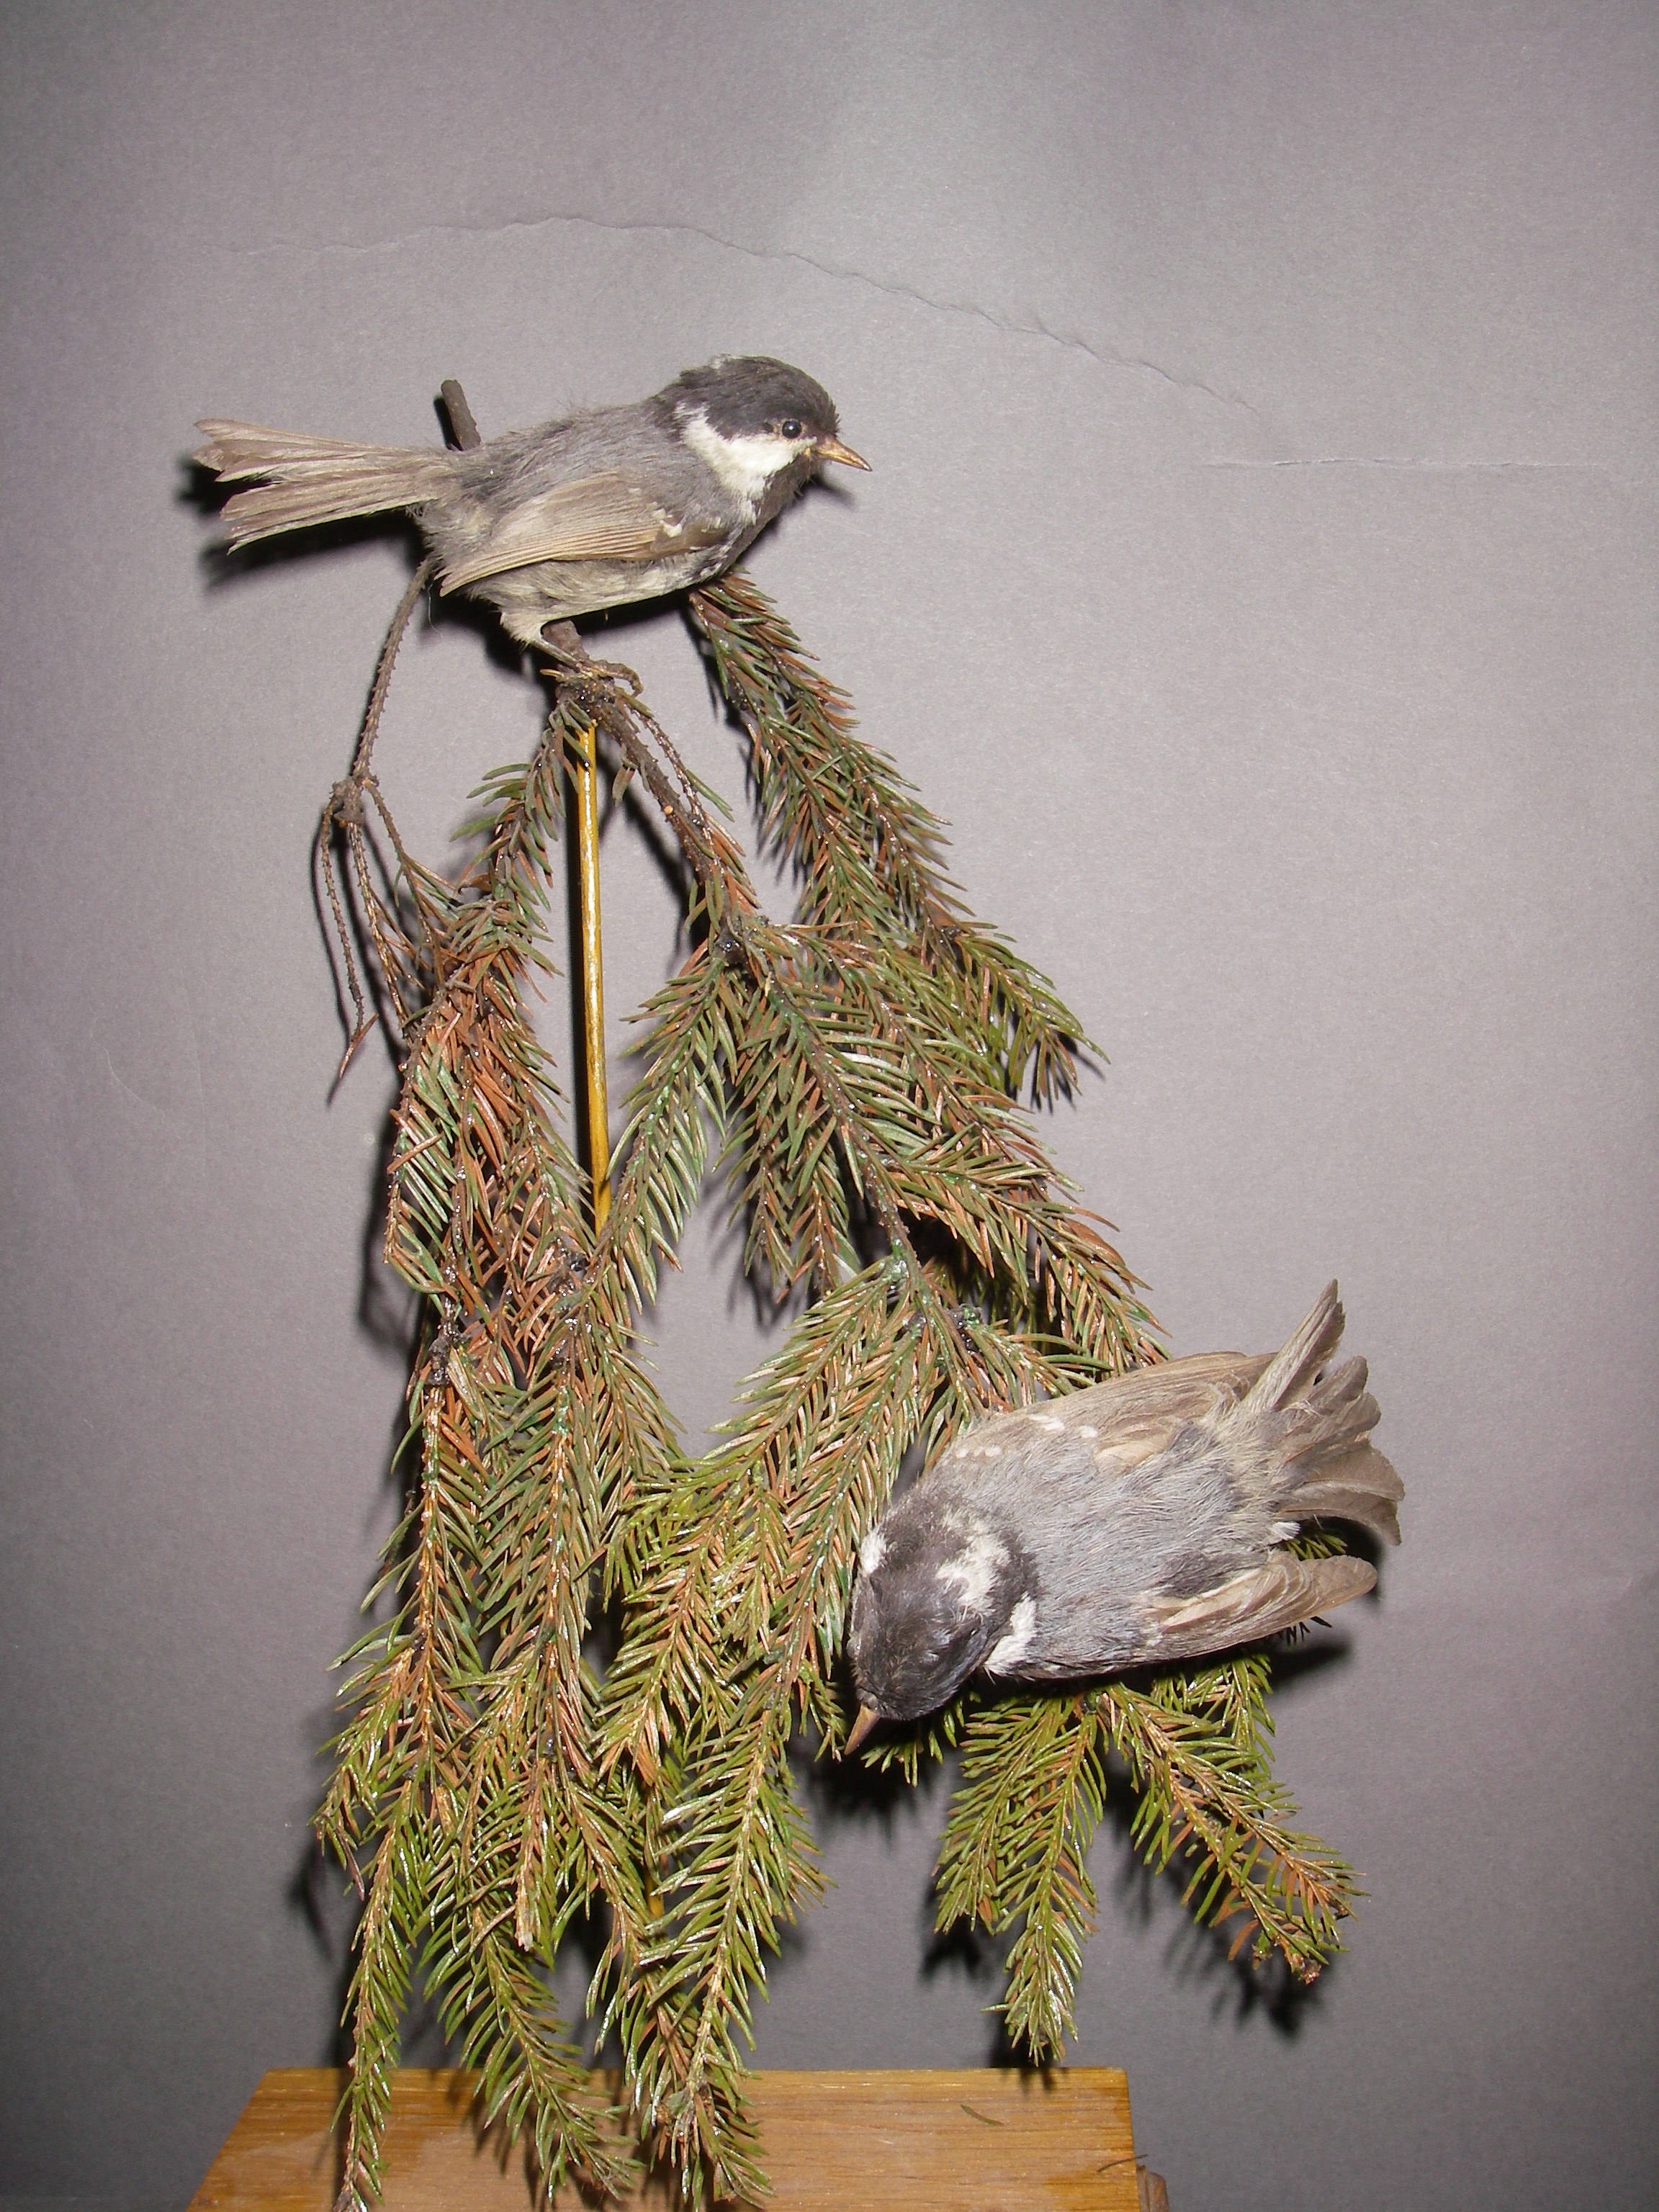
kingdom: Animalia
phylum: Chordata
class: Aves
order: Passeriformes
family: Paridae
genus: Periparus
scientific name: Periparus ater
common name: Coal tit
